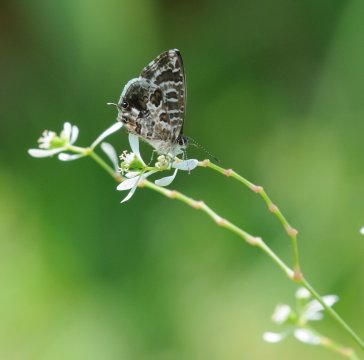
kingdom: Animalia
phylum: Arthropoda
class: Insecta
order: Lepidoptera
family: Lycaenidae
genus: Cacyreus
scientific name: Cacyreus lingeus
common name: Common Bush Blue
